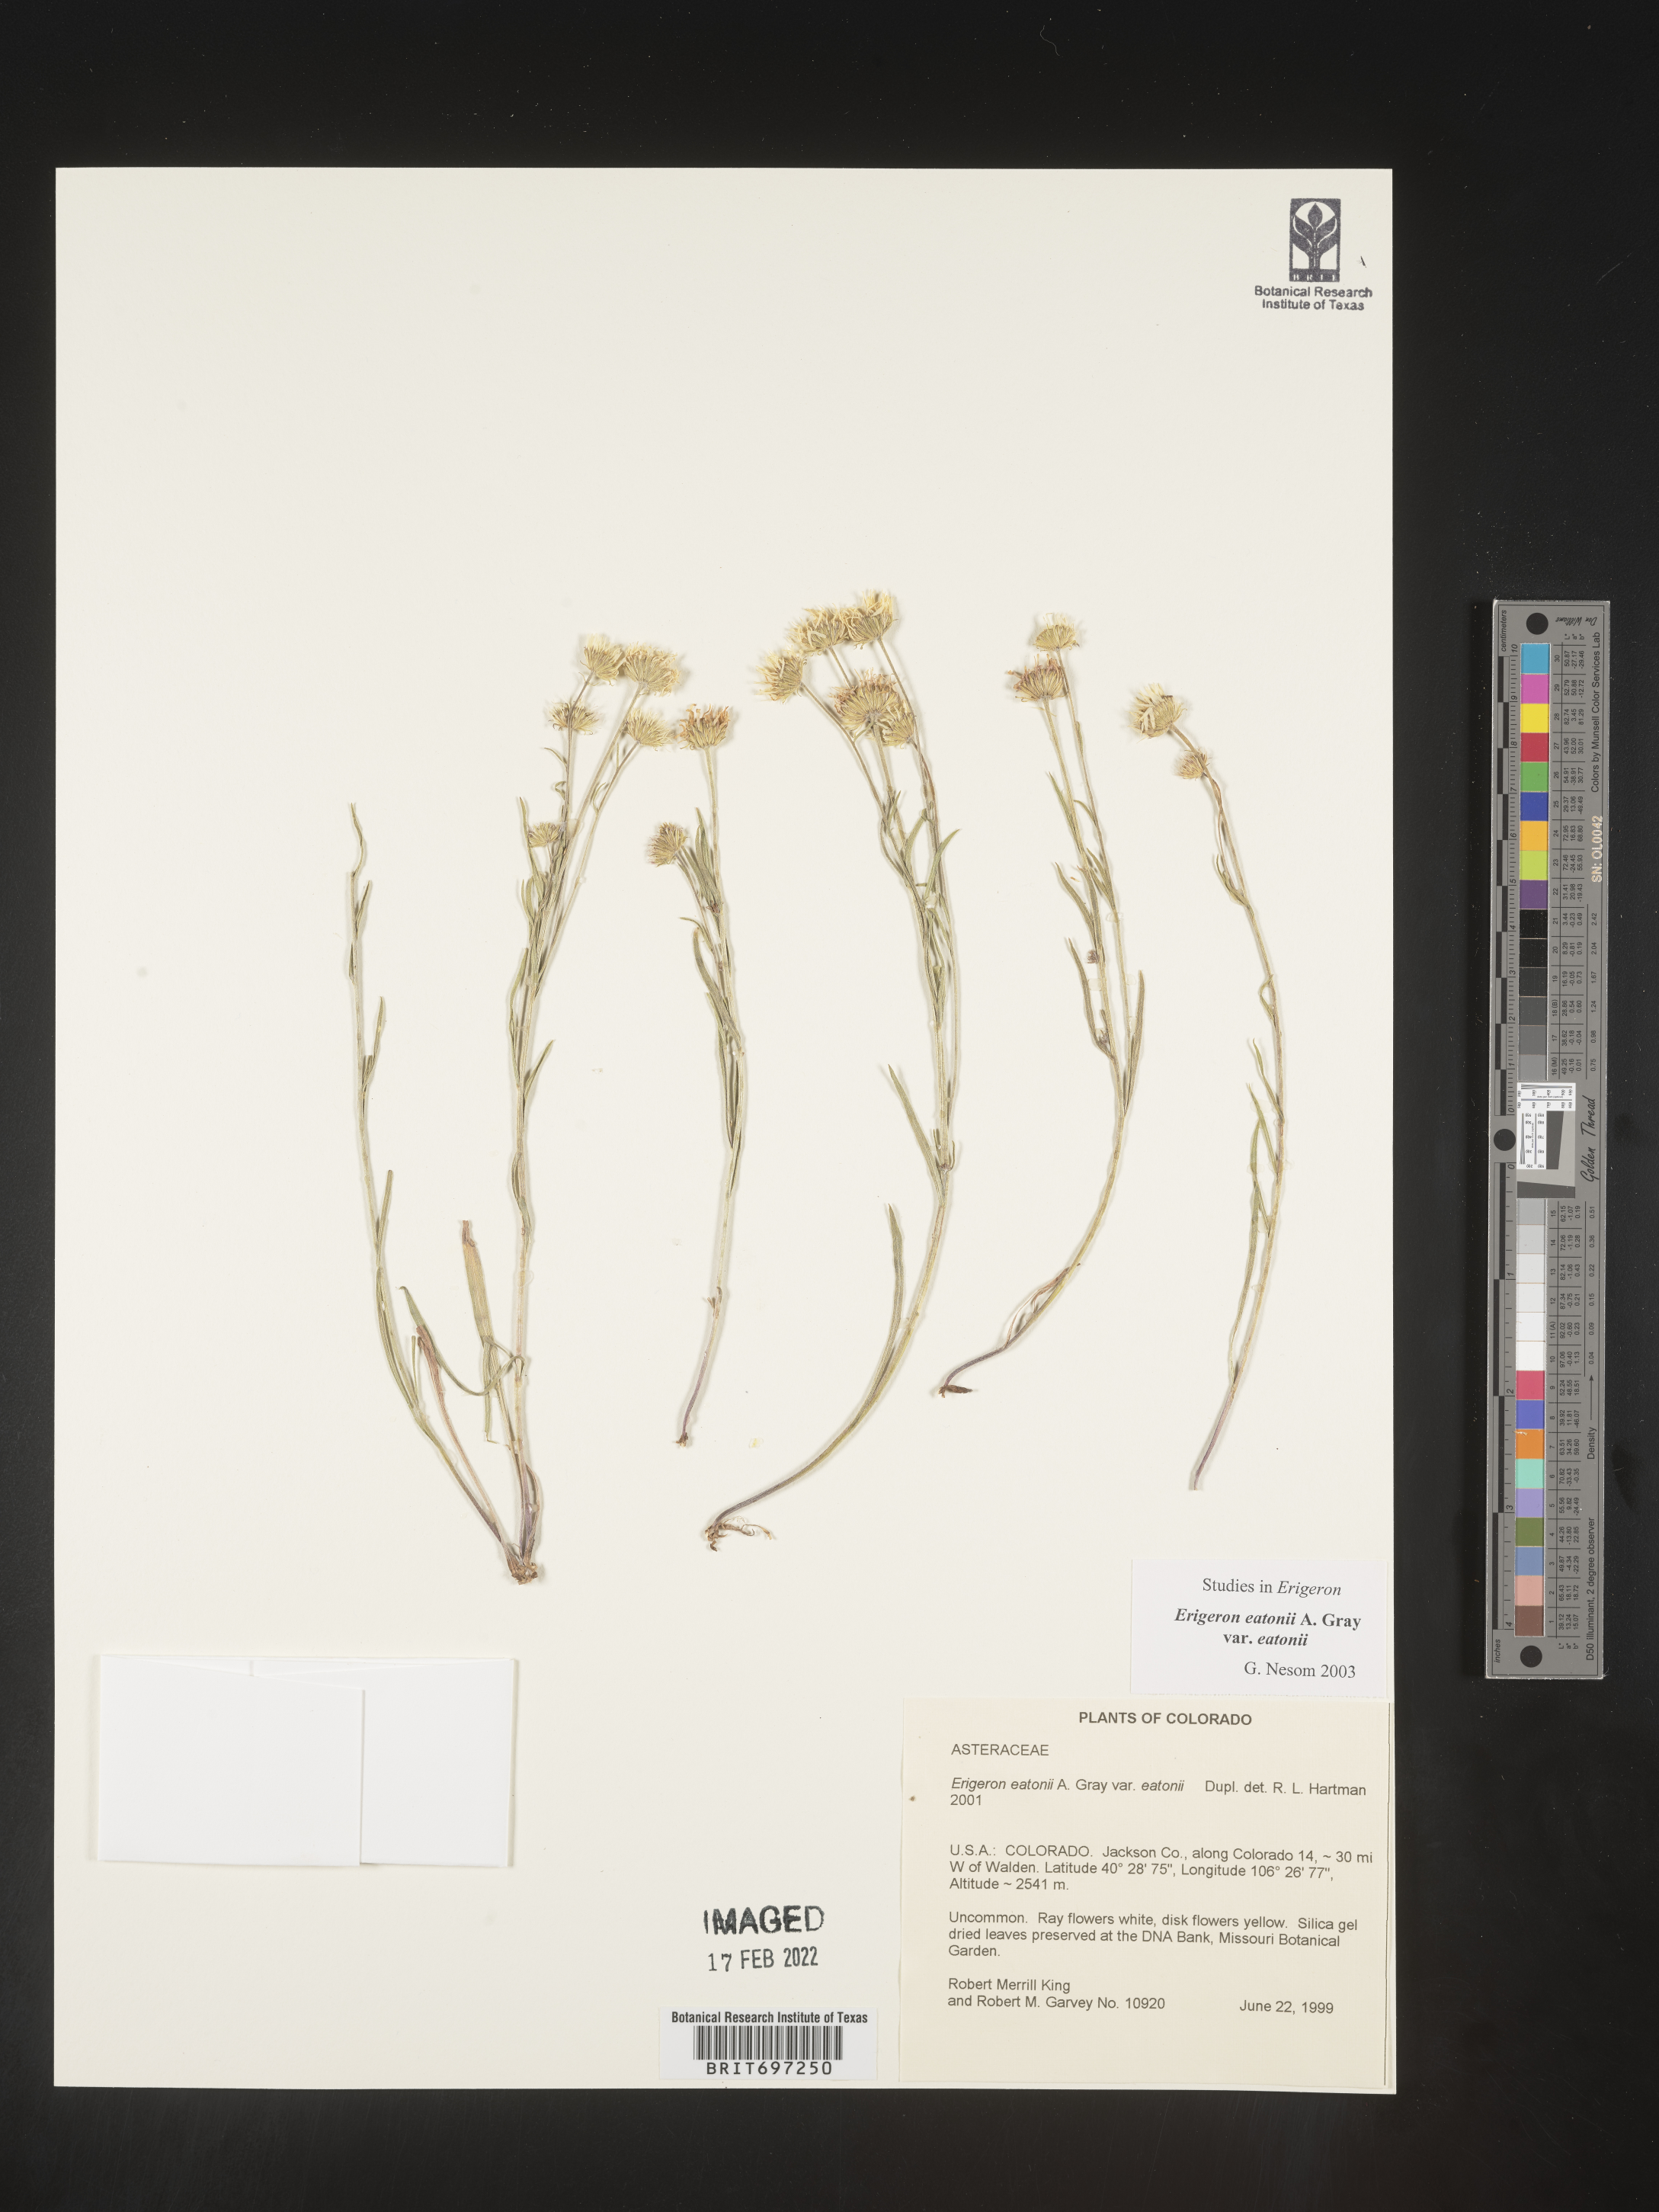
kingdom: Plantae
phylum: Tracheophyta
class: Magnoliopsida
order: Asterales
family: Asteraceae
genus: Erigeron
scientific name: Erigeron eatonii
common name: Eaton's fleabane
